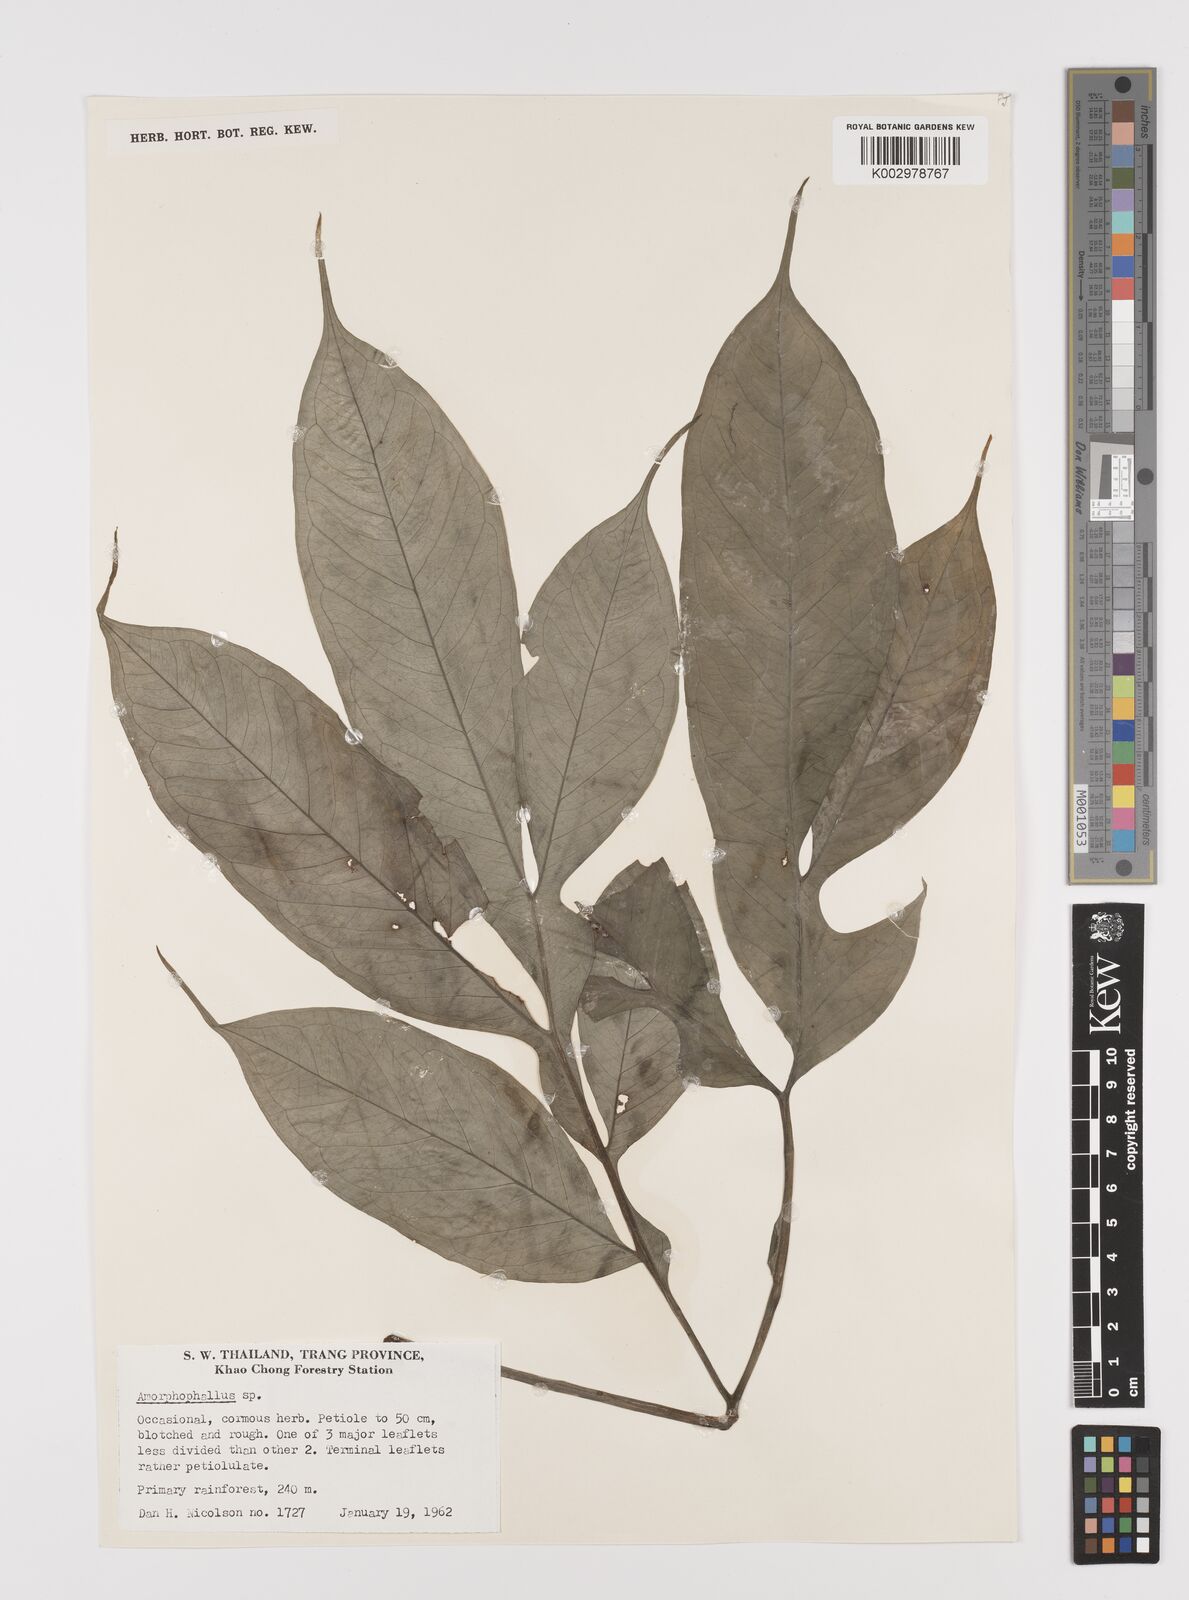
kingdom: Plantae
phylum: Tracheophyta
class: Liliopsida
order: Alismatales
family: Araceae
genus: Amorphophallus
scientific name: Amorphophallus
